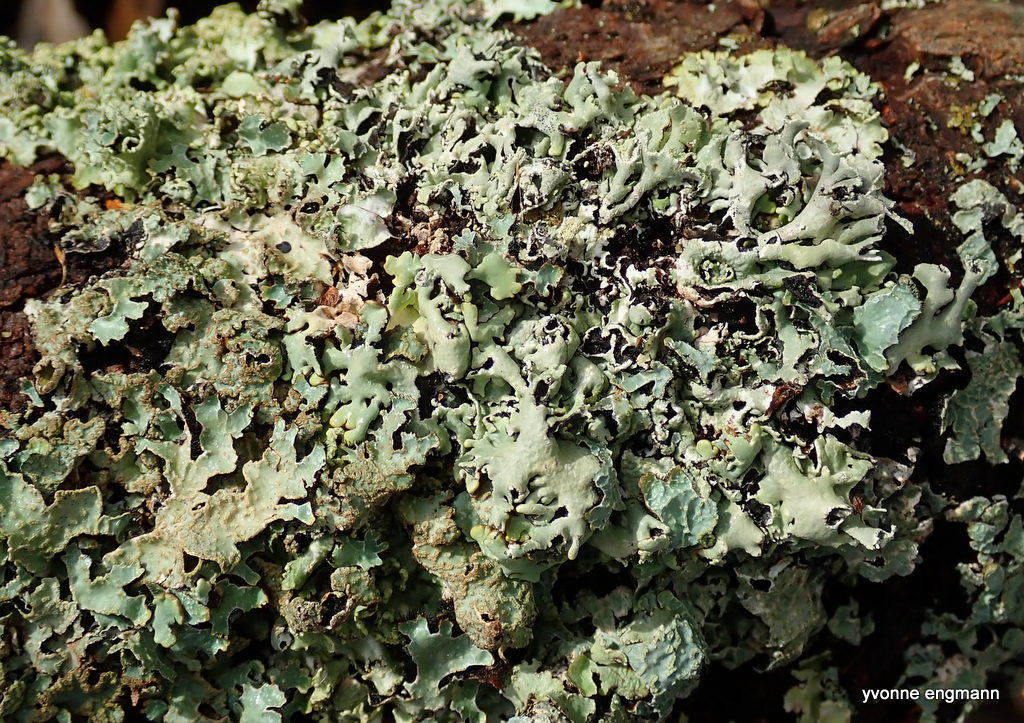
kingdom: Fungi
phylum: Ascomycota
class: Lecanoromycetes
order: Lecanorales
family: Parmeliaceae
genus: Hypogymnia
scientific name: Hypogymnia physodes
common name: almindelig kvistlav
